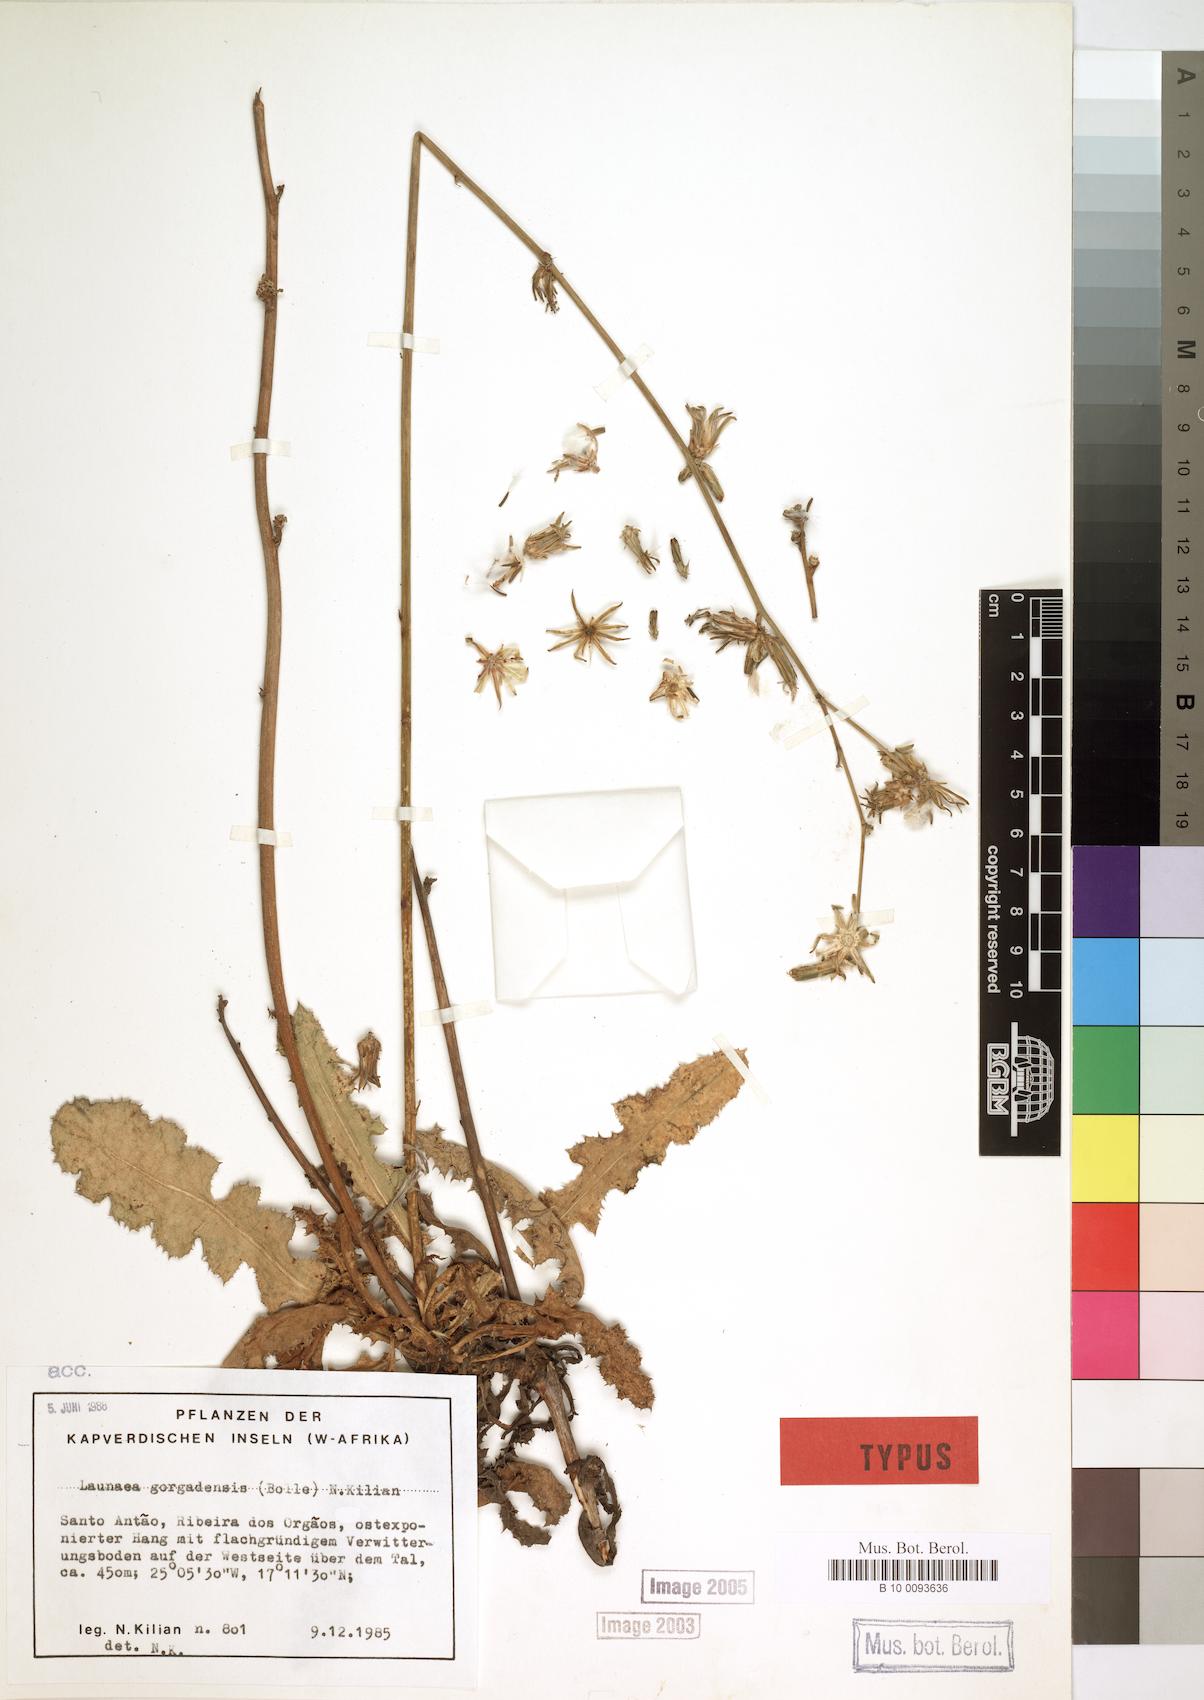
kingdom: Plantae
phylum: Tracheophyta
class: Magnoliopsida
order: Asterales
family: Asteraceae
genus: Launaea
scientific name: Launaea gorgadensis
